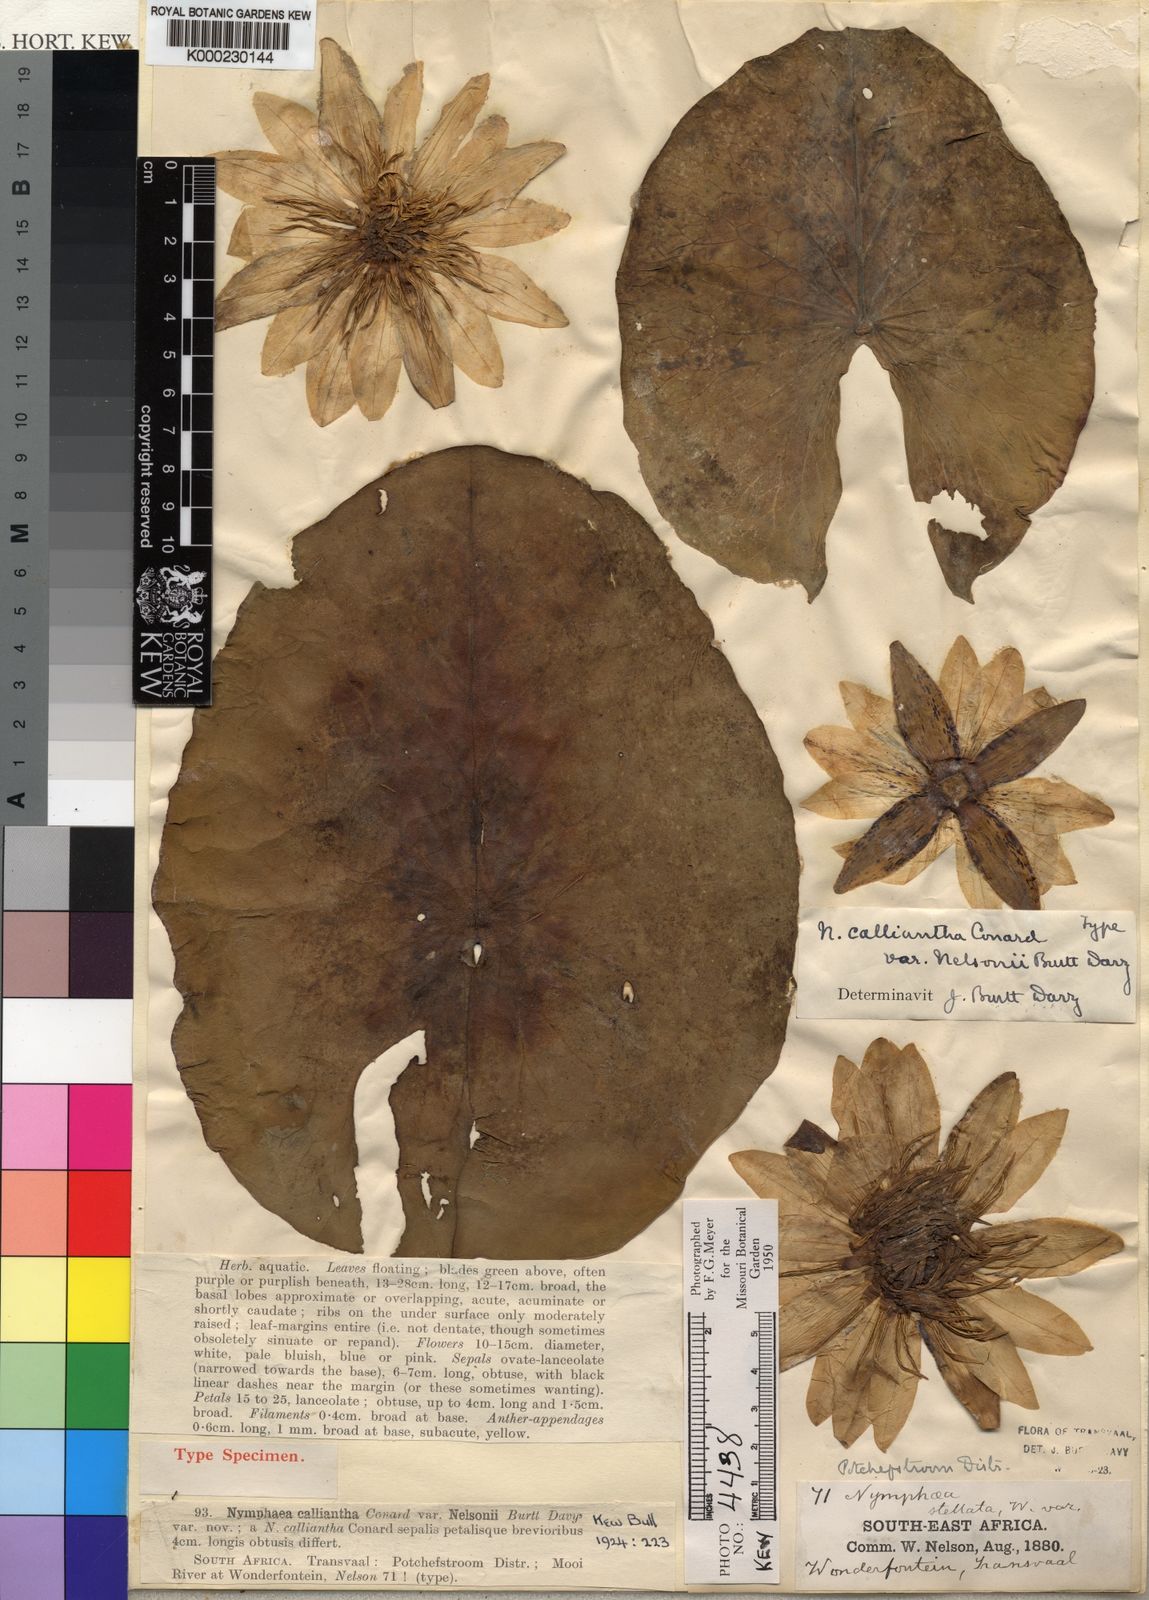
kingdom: Plantae
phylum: Tracheophyta
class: Magnoliopsida
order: Nymphaeales
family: Nymphaeaceae
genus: Nymphaea
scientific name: Nymphaea nouchali
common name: Blue lotus
